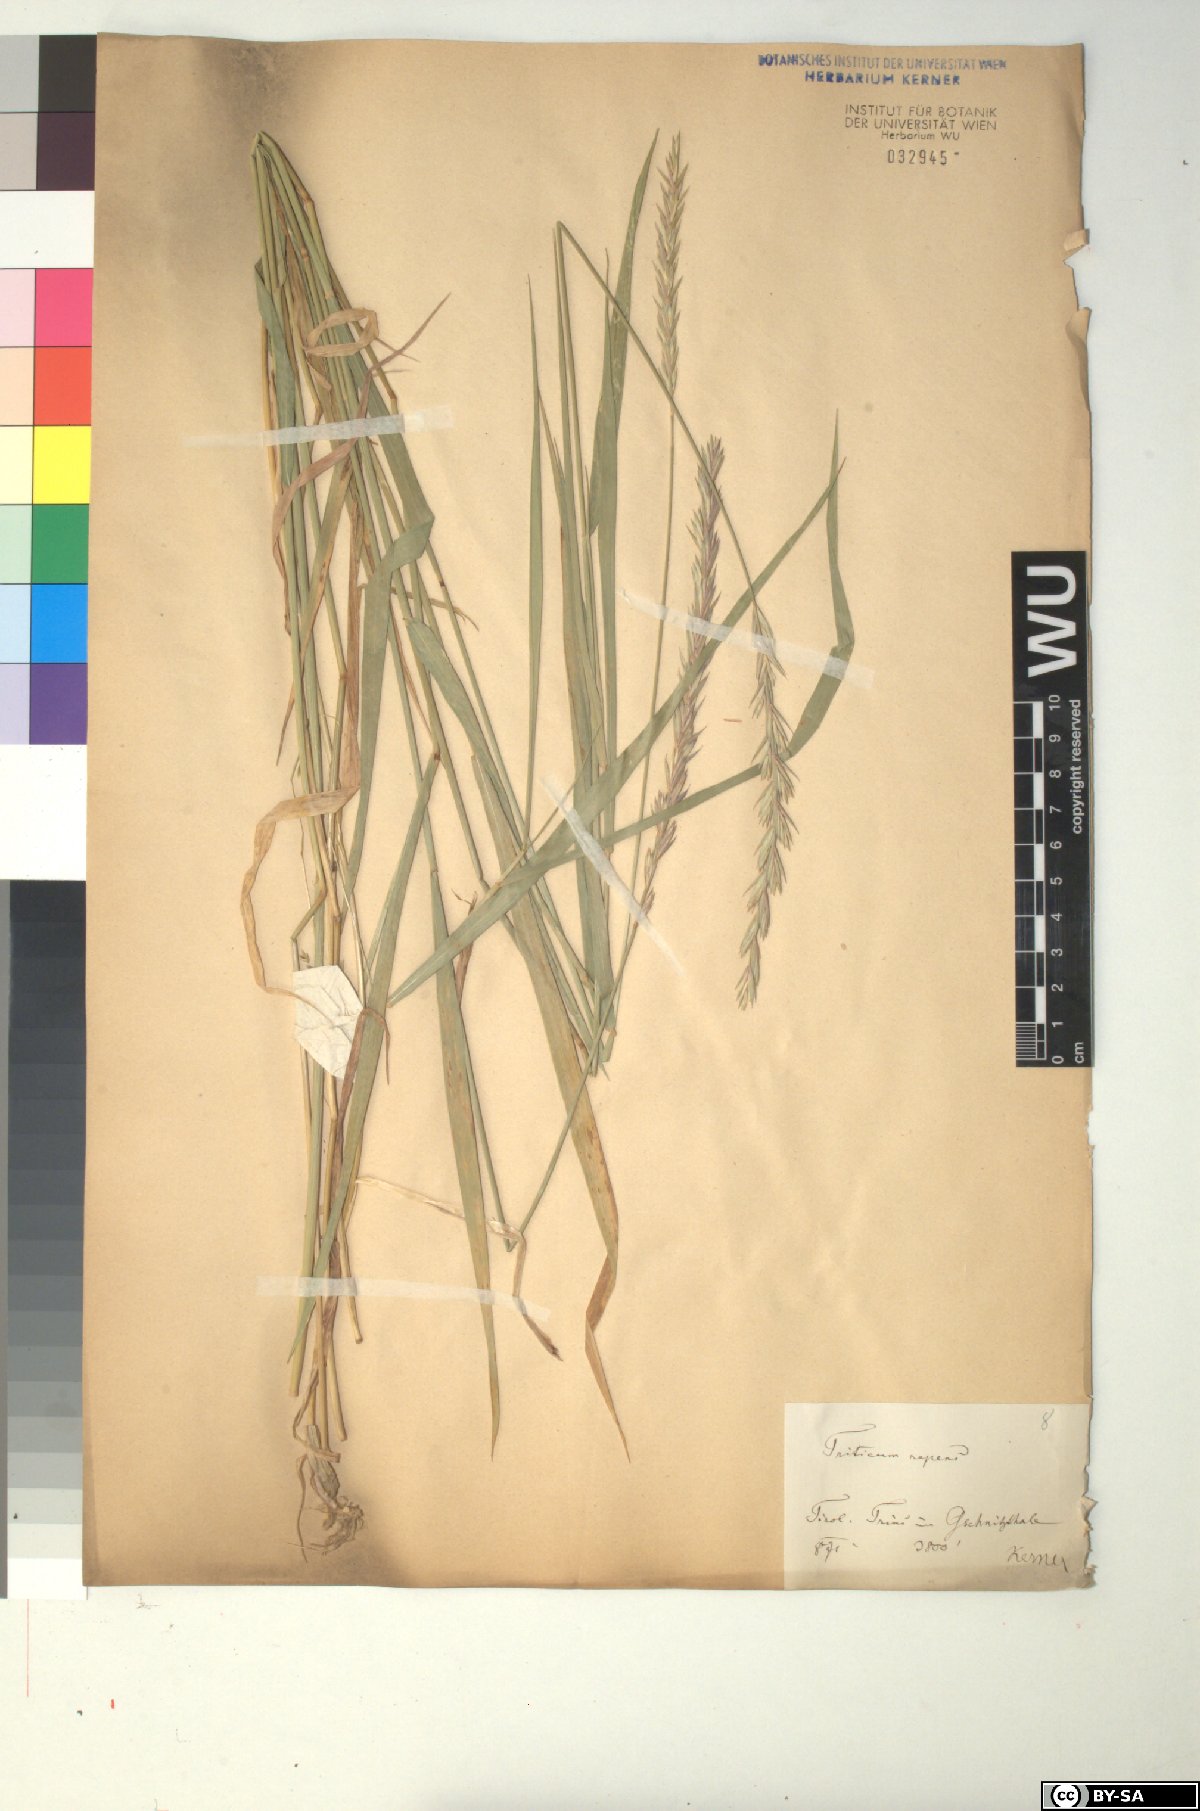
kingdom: Plantae
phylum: Tracheophyta
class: Liliopsida
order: Poales
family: Poaceae
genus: Elymus
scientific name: Elymus repens
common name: Quackgrass
